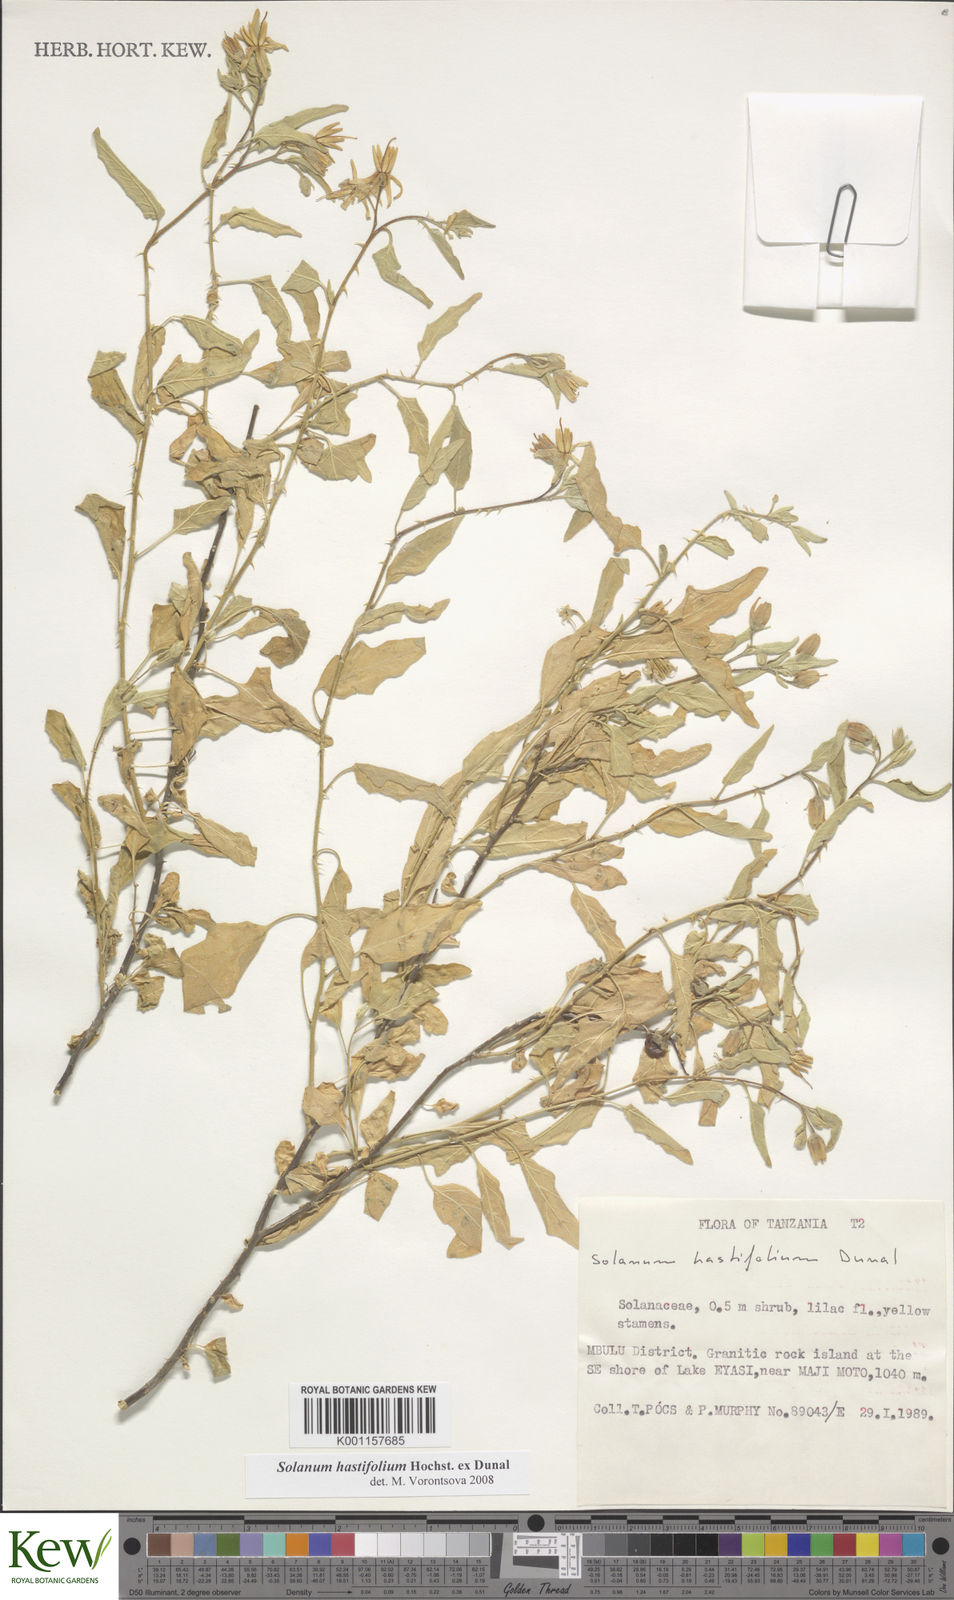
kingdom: Plantae
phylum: Tracheophyta
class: Magnoliopsida
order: Solanales
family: Solanaceae
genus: Solanum
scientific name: Solanum hastifolium
